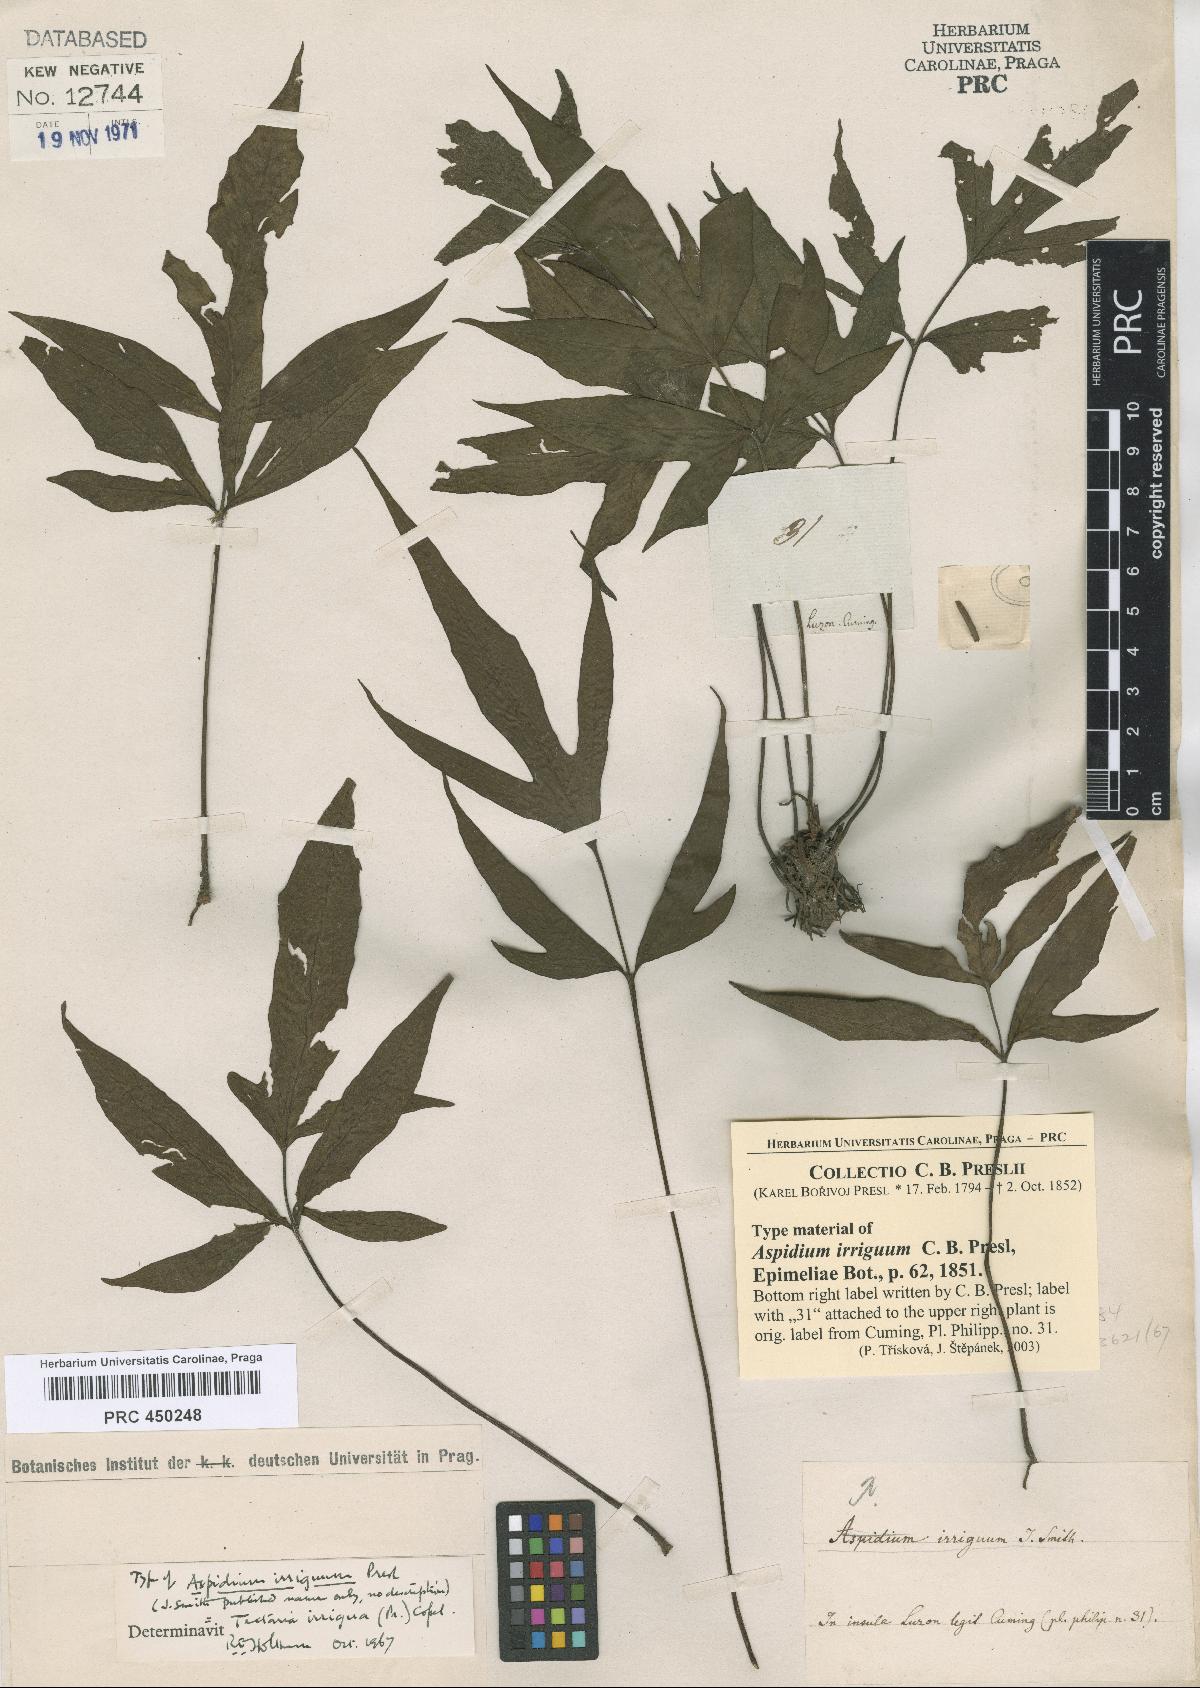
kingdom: Plantae
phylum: Tracheophyta
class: Polypodiopsida
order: Polypodiales
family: Tectariaceae
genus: Tectaria
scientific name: Tectaria trifida
